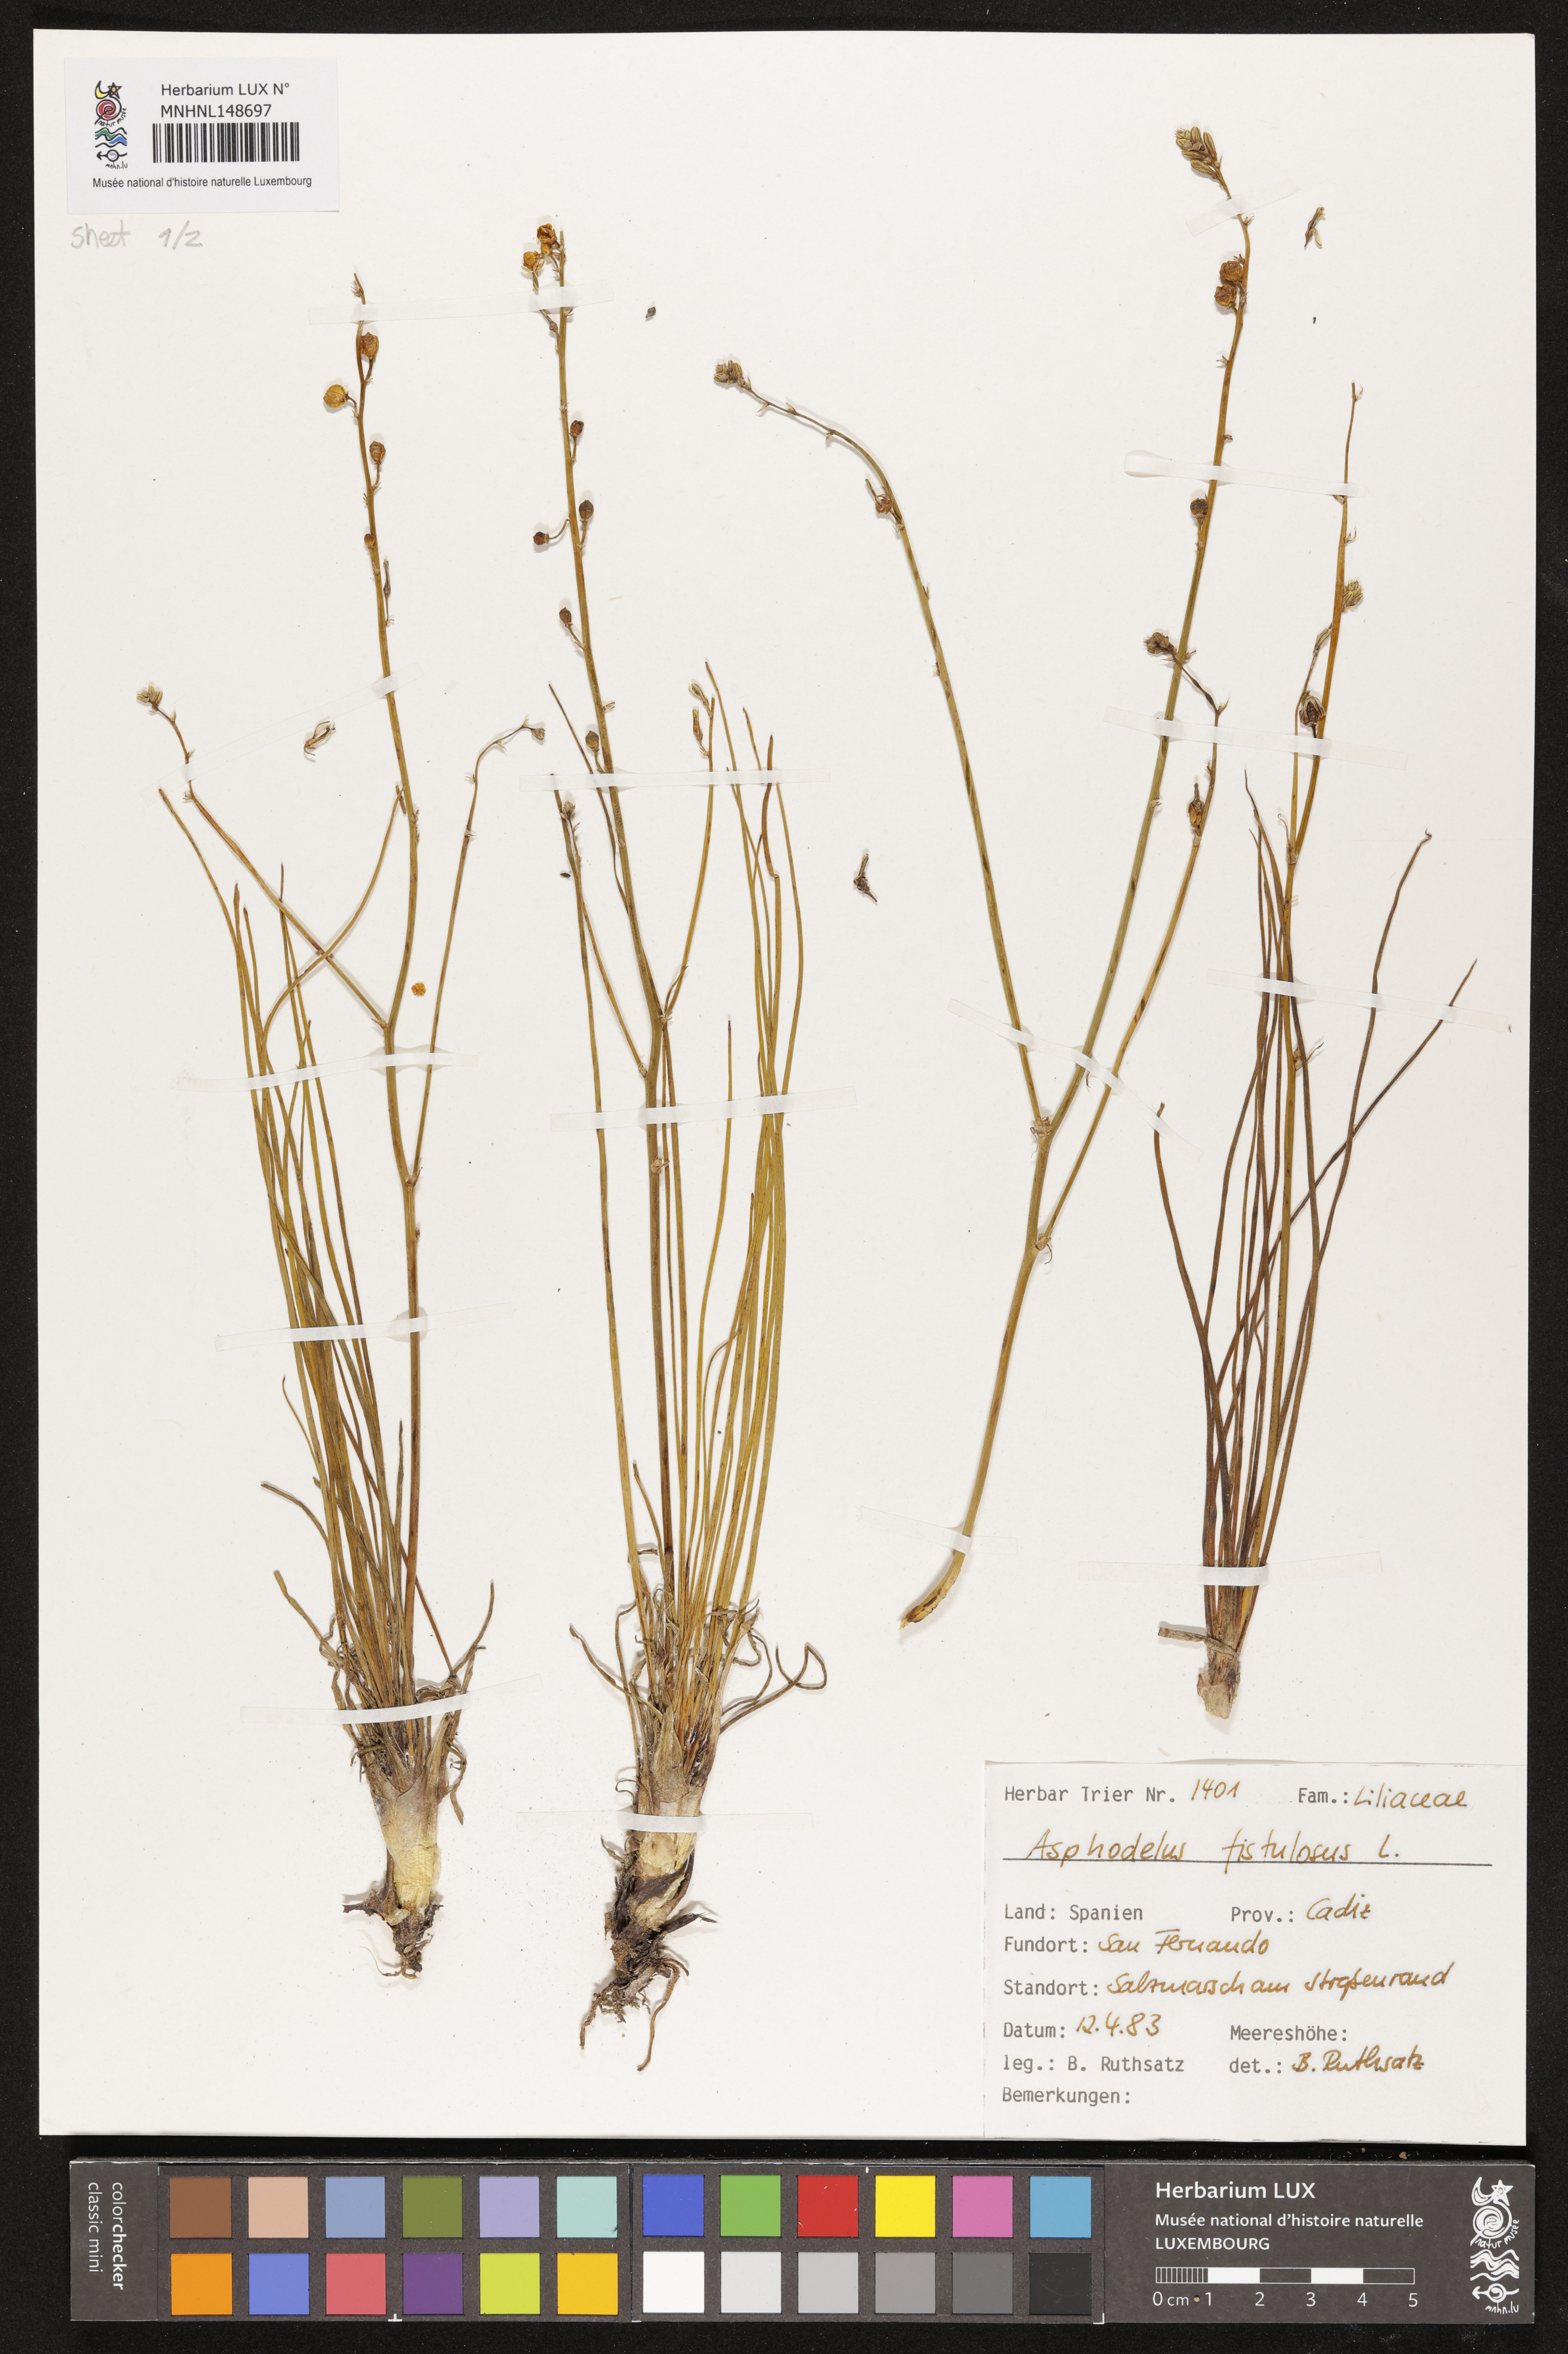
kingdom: Plantae
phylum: Tracheophyta
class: Liliopsida
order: Asparagales
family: Asphodelaceae
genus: Asphodelus
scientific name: Asphodelus fistulosus
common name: Onionweed
